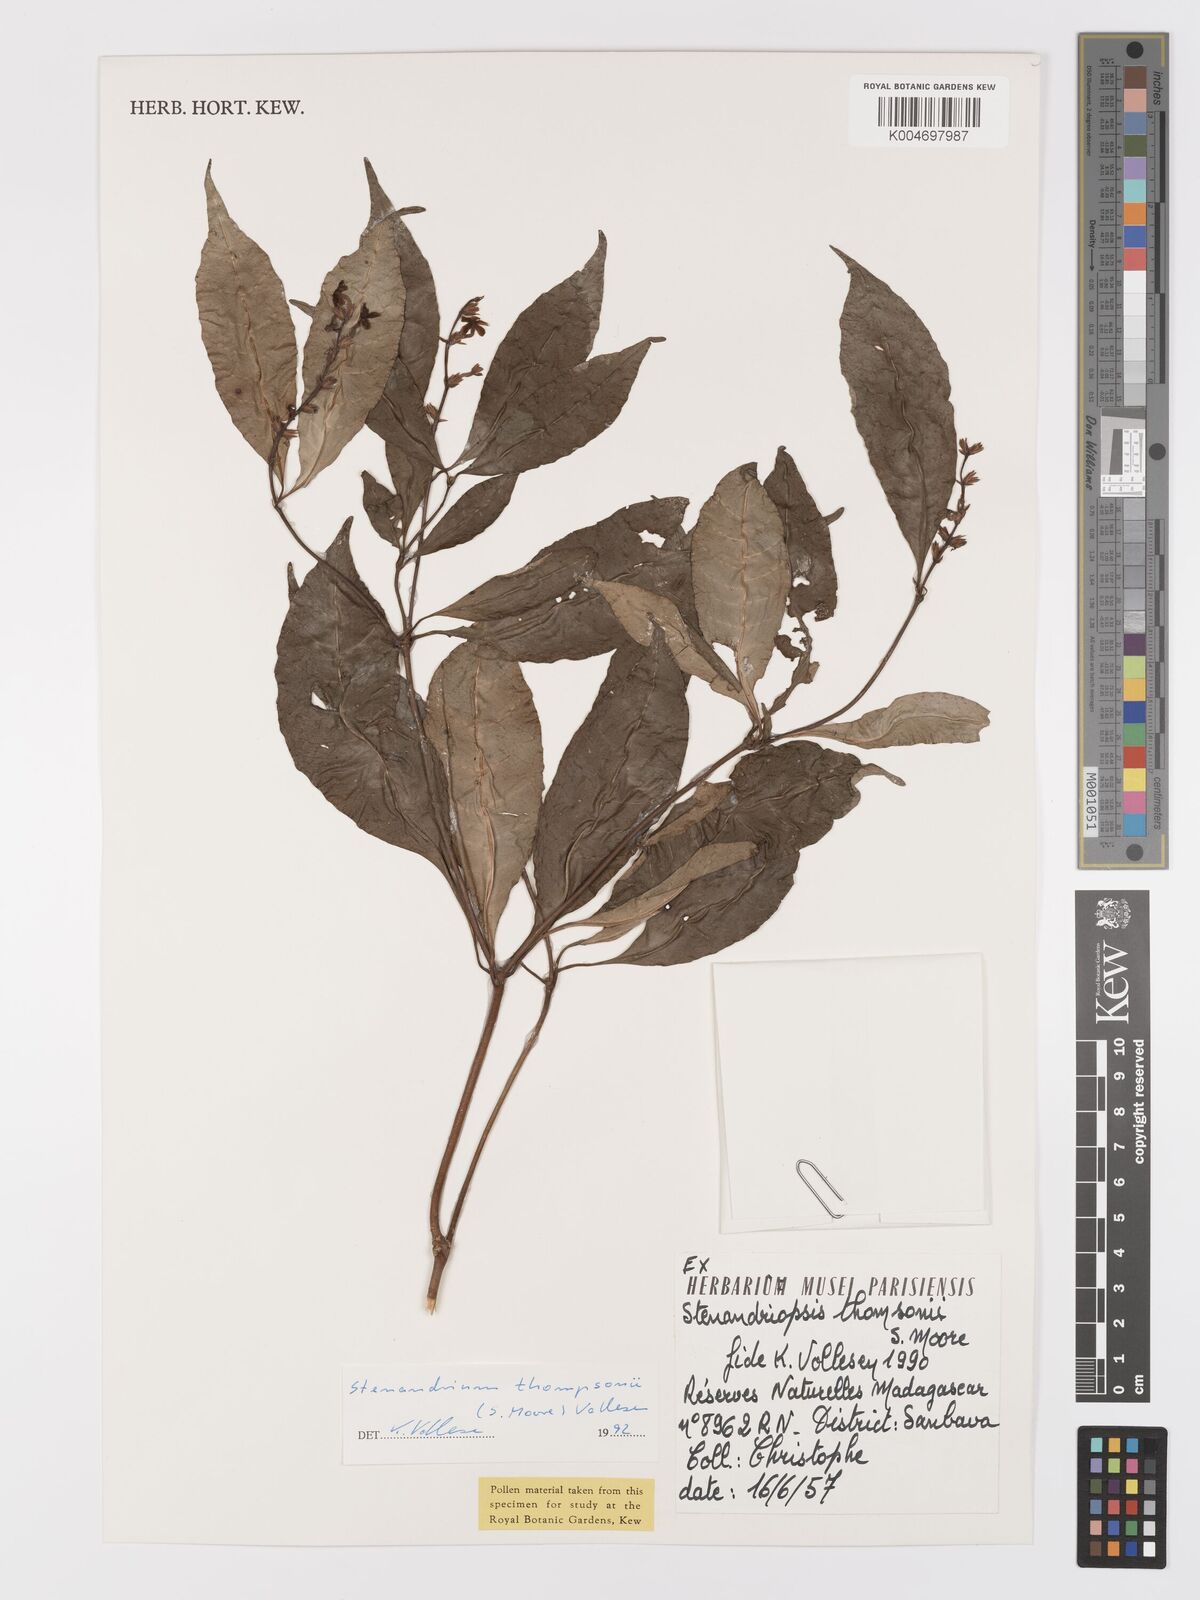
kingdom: Plantae
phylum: Tracheophyta
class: Magnoliopsida
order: Lamiales
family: Acanthaceae
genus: Stenandriopsis
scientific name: Stenandriopsis thompsonii
